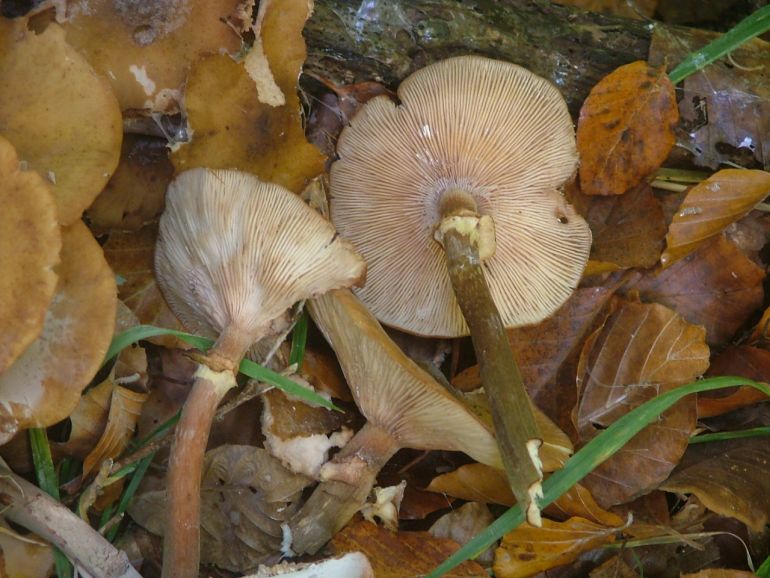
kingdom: Fungi
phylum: Basidiomycota
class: Agaricomycetes
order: Agaricales
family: Physalacriaceae
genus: Armillaria
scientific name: Armillaria mellea
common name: ægte honningsvamp
